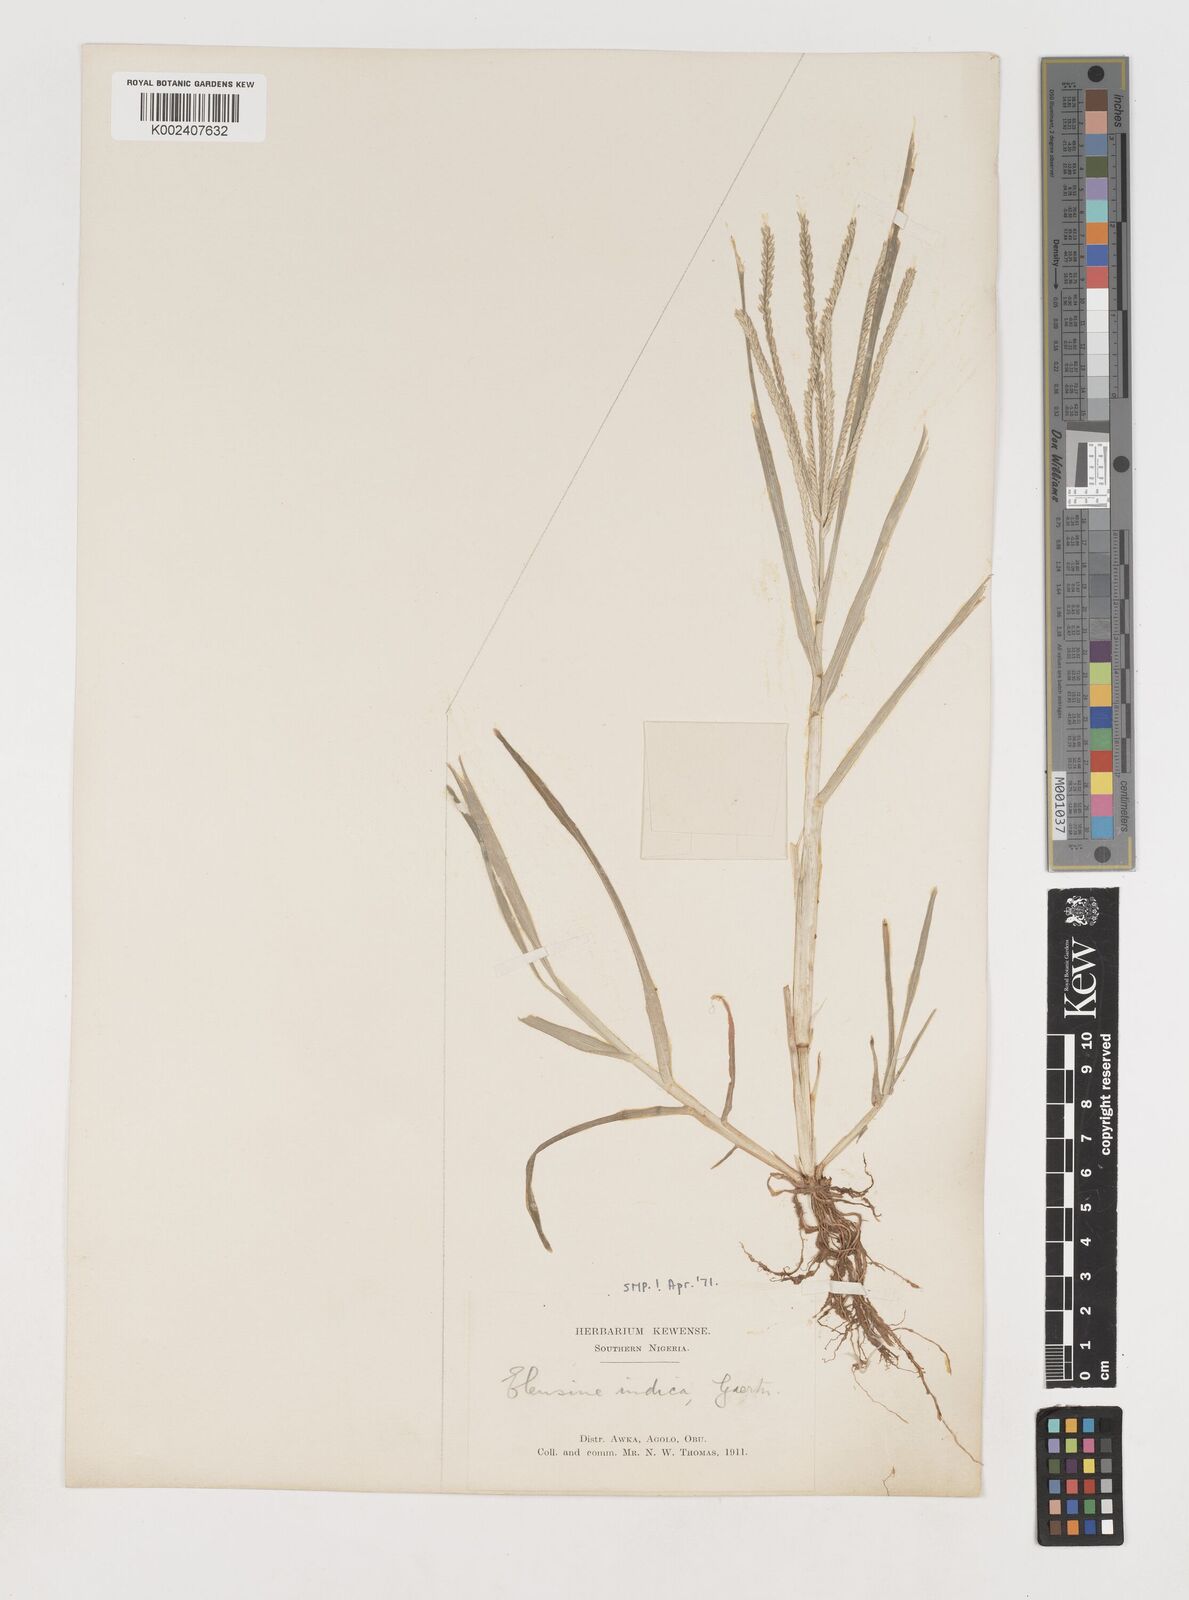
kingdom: Plantae
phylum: Tracheophyta
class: Liliopsida
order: Poales
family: Poaceae
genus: Eleusine
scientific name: Eleusine indica
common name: Yard-grass
